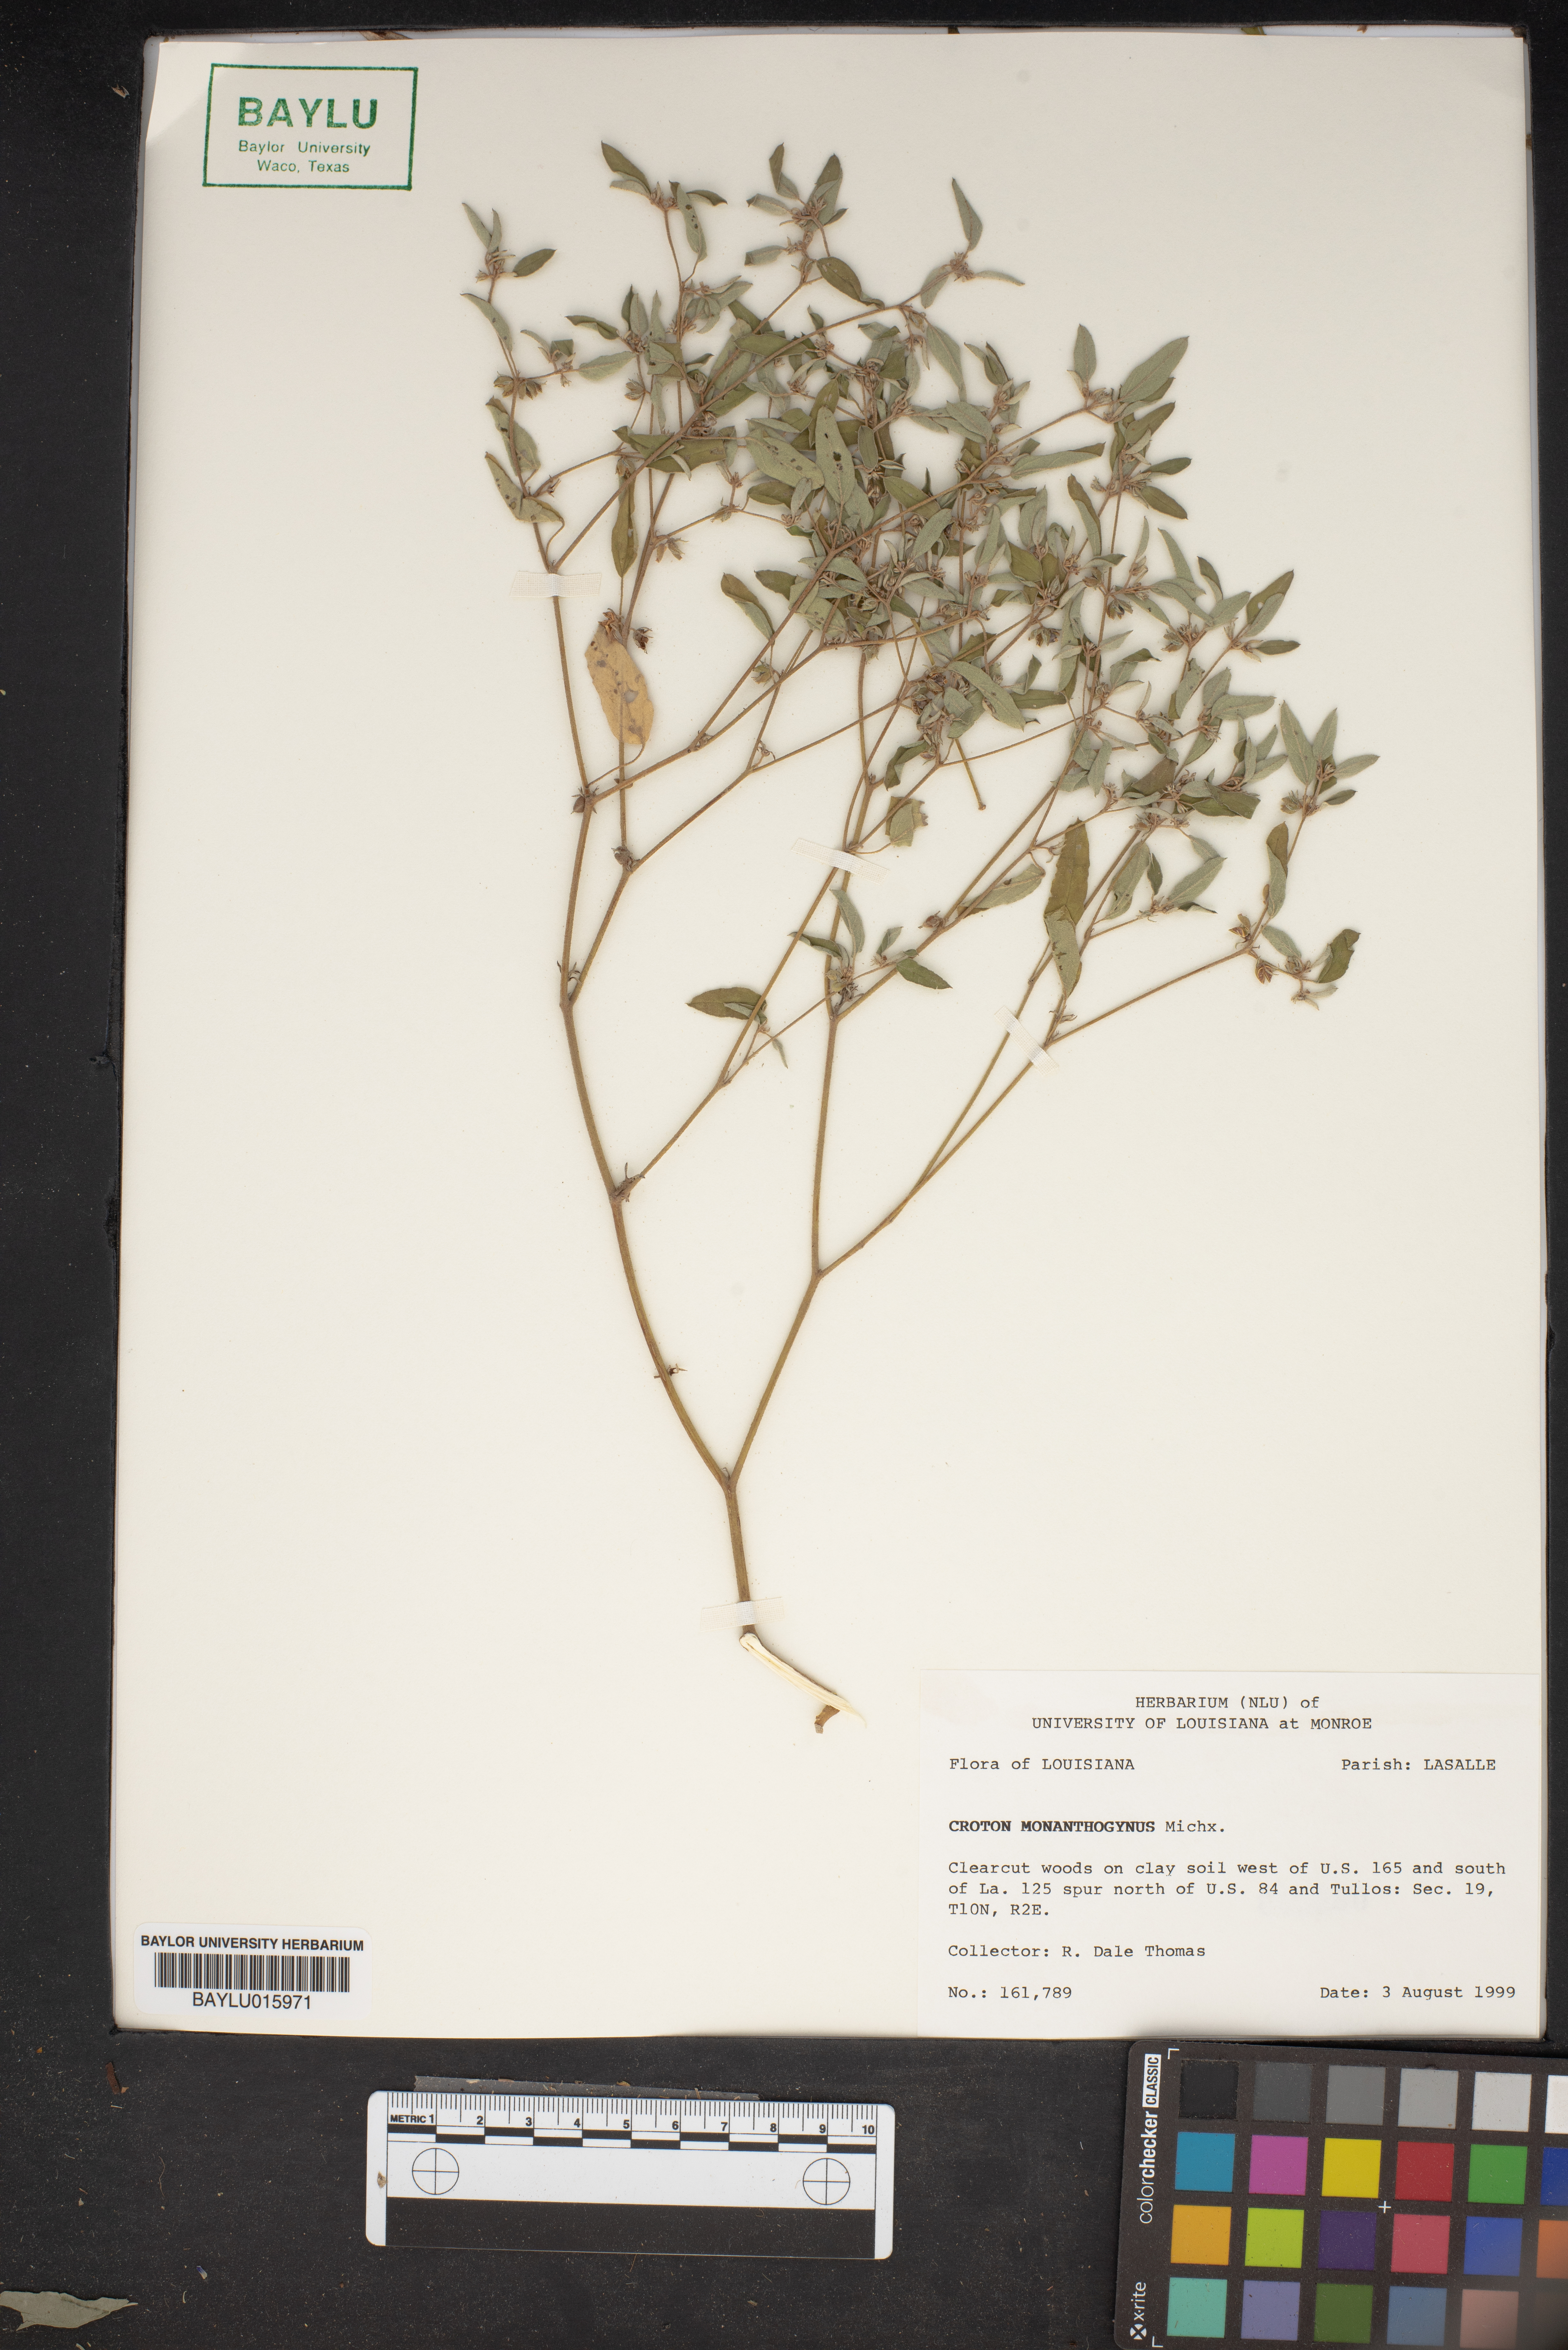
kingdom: Plantae
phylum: Tracheophyta
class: Magnoliopsida
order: Malpighiales
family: Euphorbiaceae
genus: Croton
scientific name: Croton monanthogynus
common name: One-seed croton
